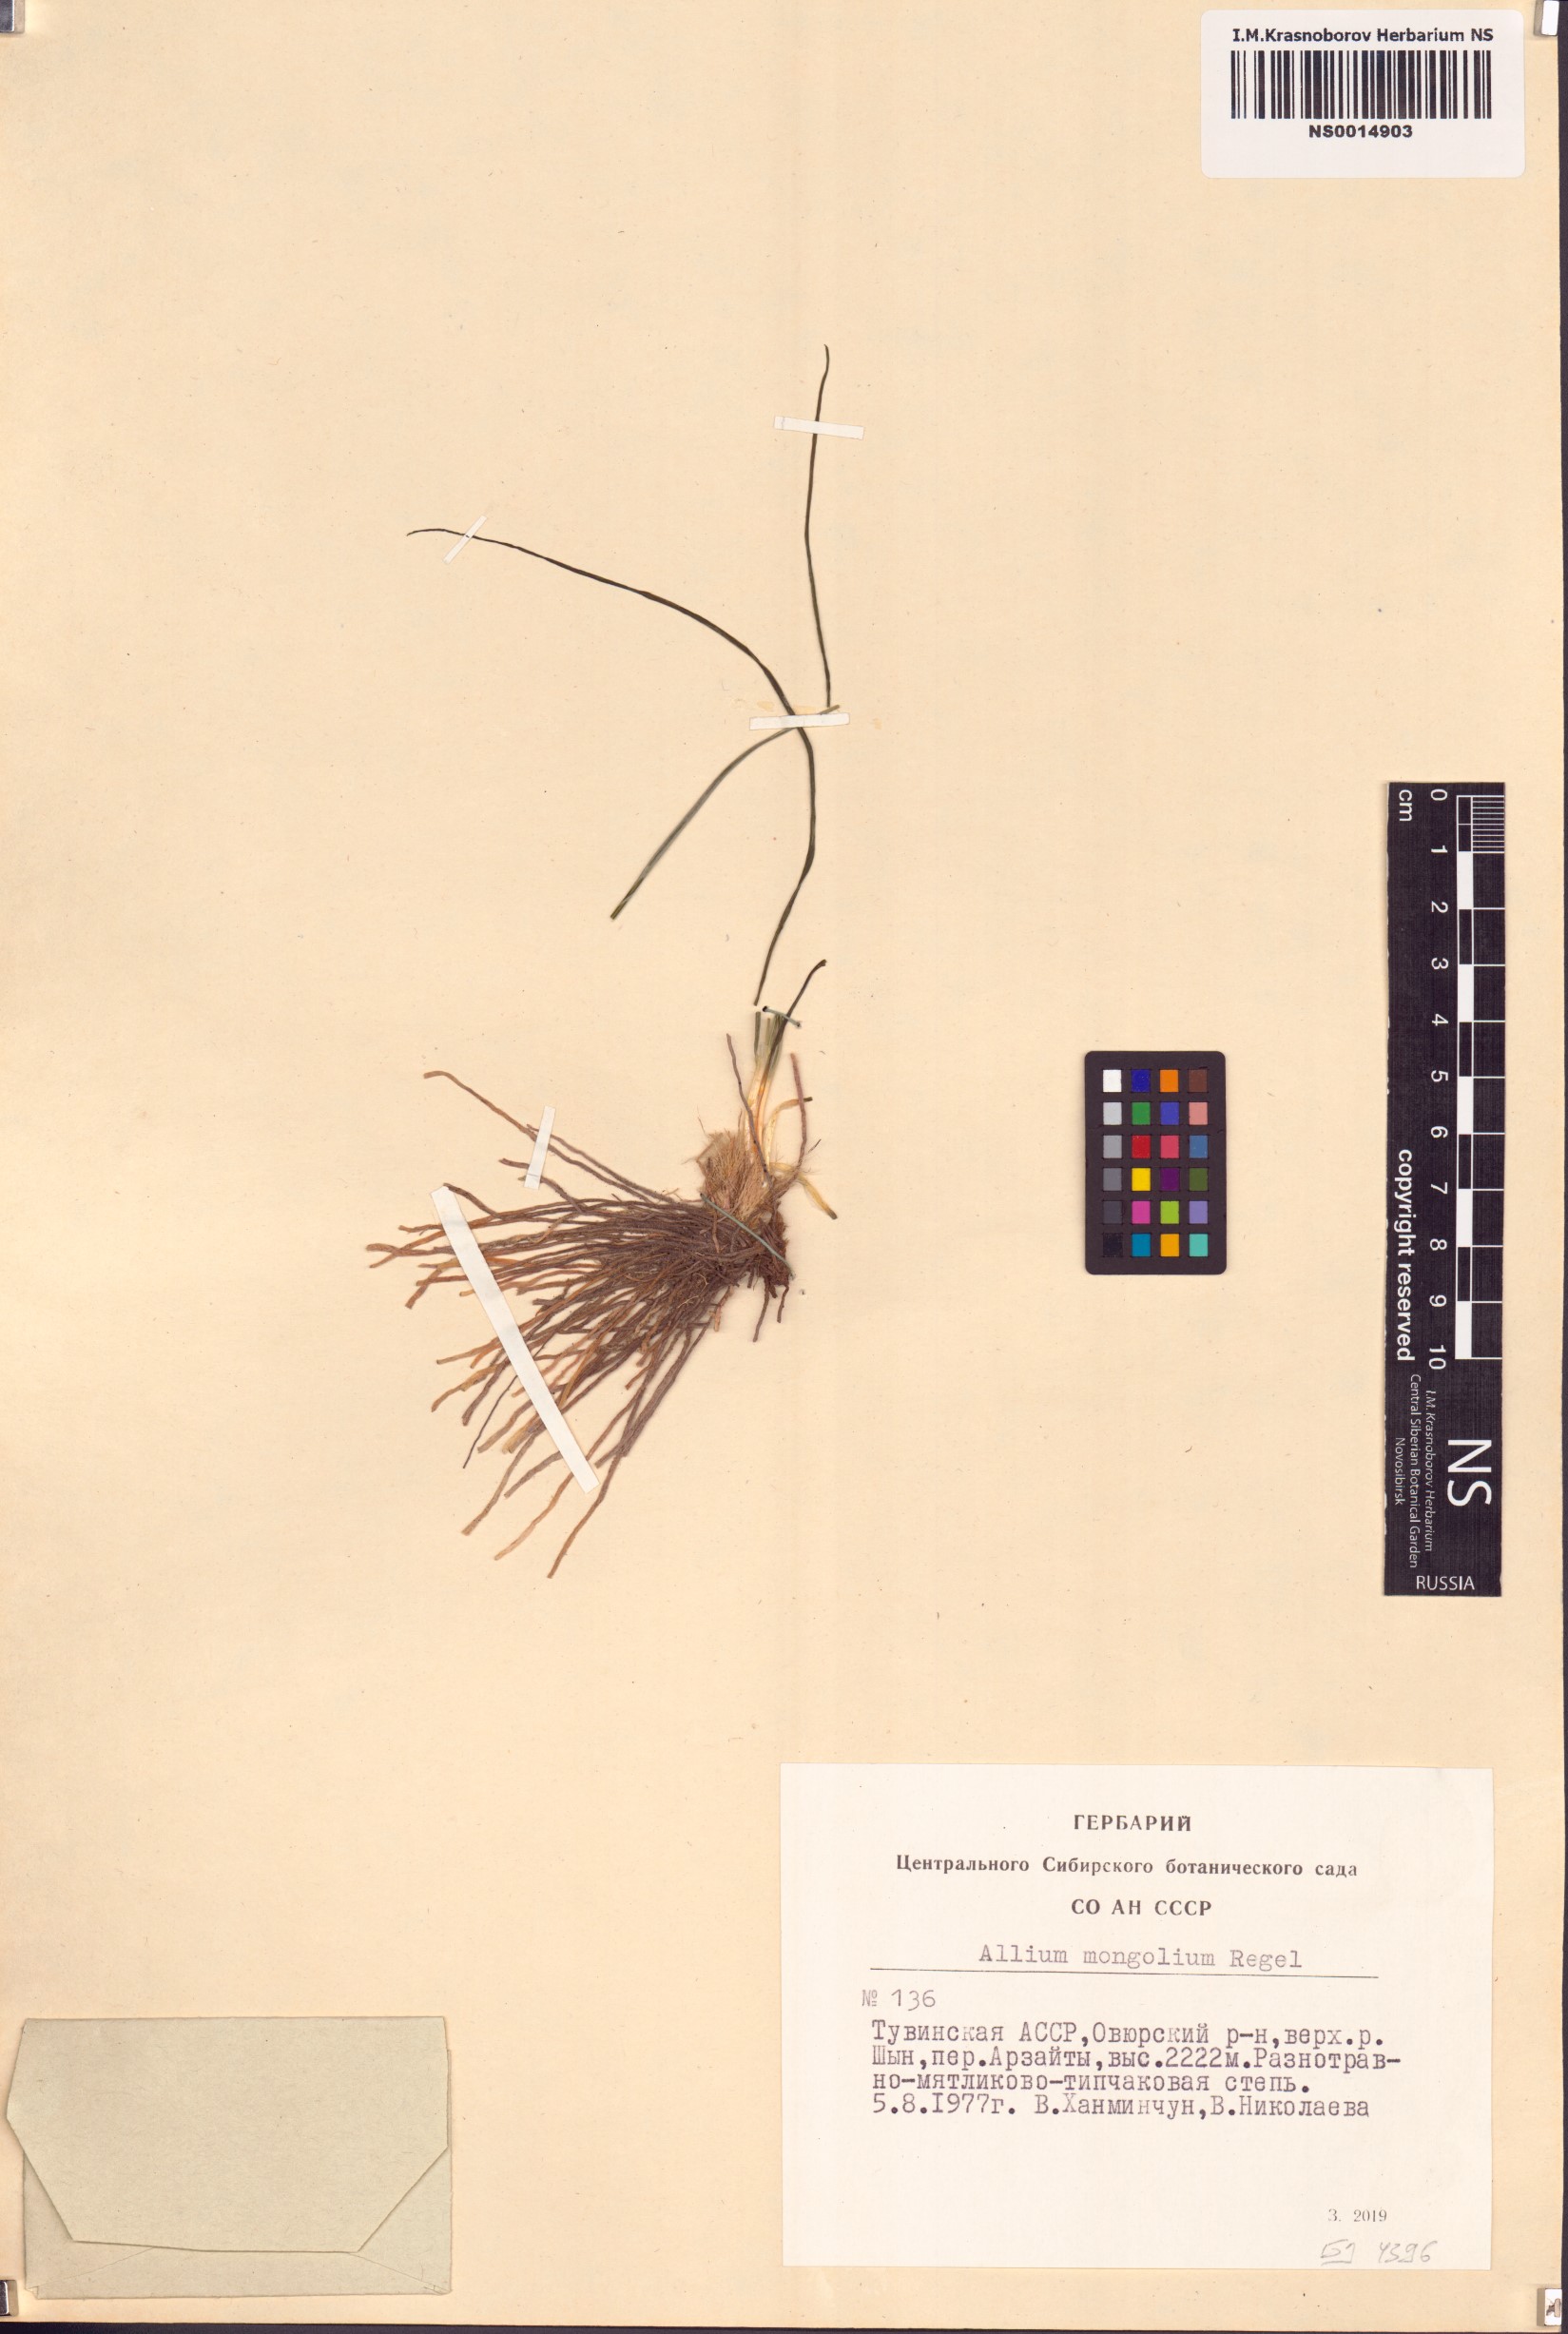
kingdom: Plantae
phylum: Tracheophyta
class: Liliopsida
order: Asparagales
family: Amaryllidaceae
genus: Allium
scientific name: Allium mongolicum
